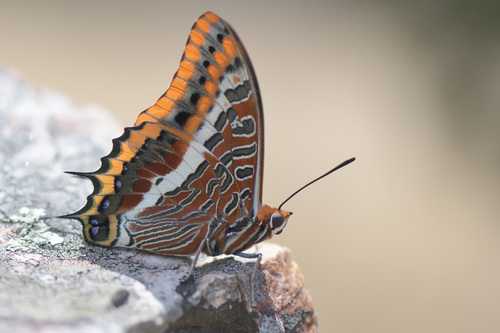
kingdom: Animalia
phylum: Arthropoda
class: Insecta
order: Lepidoptera
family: Nymphalidae
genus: Charaxes
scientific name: Charaxes jasius
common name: Two tailed pasha
